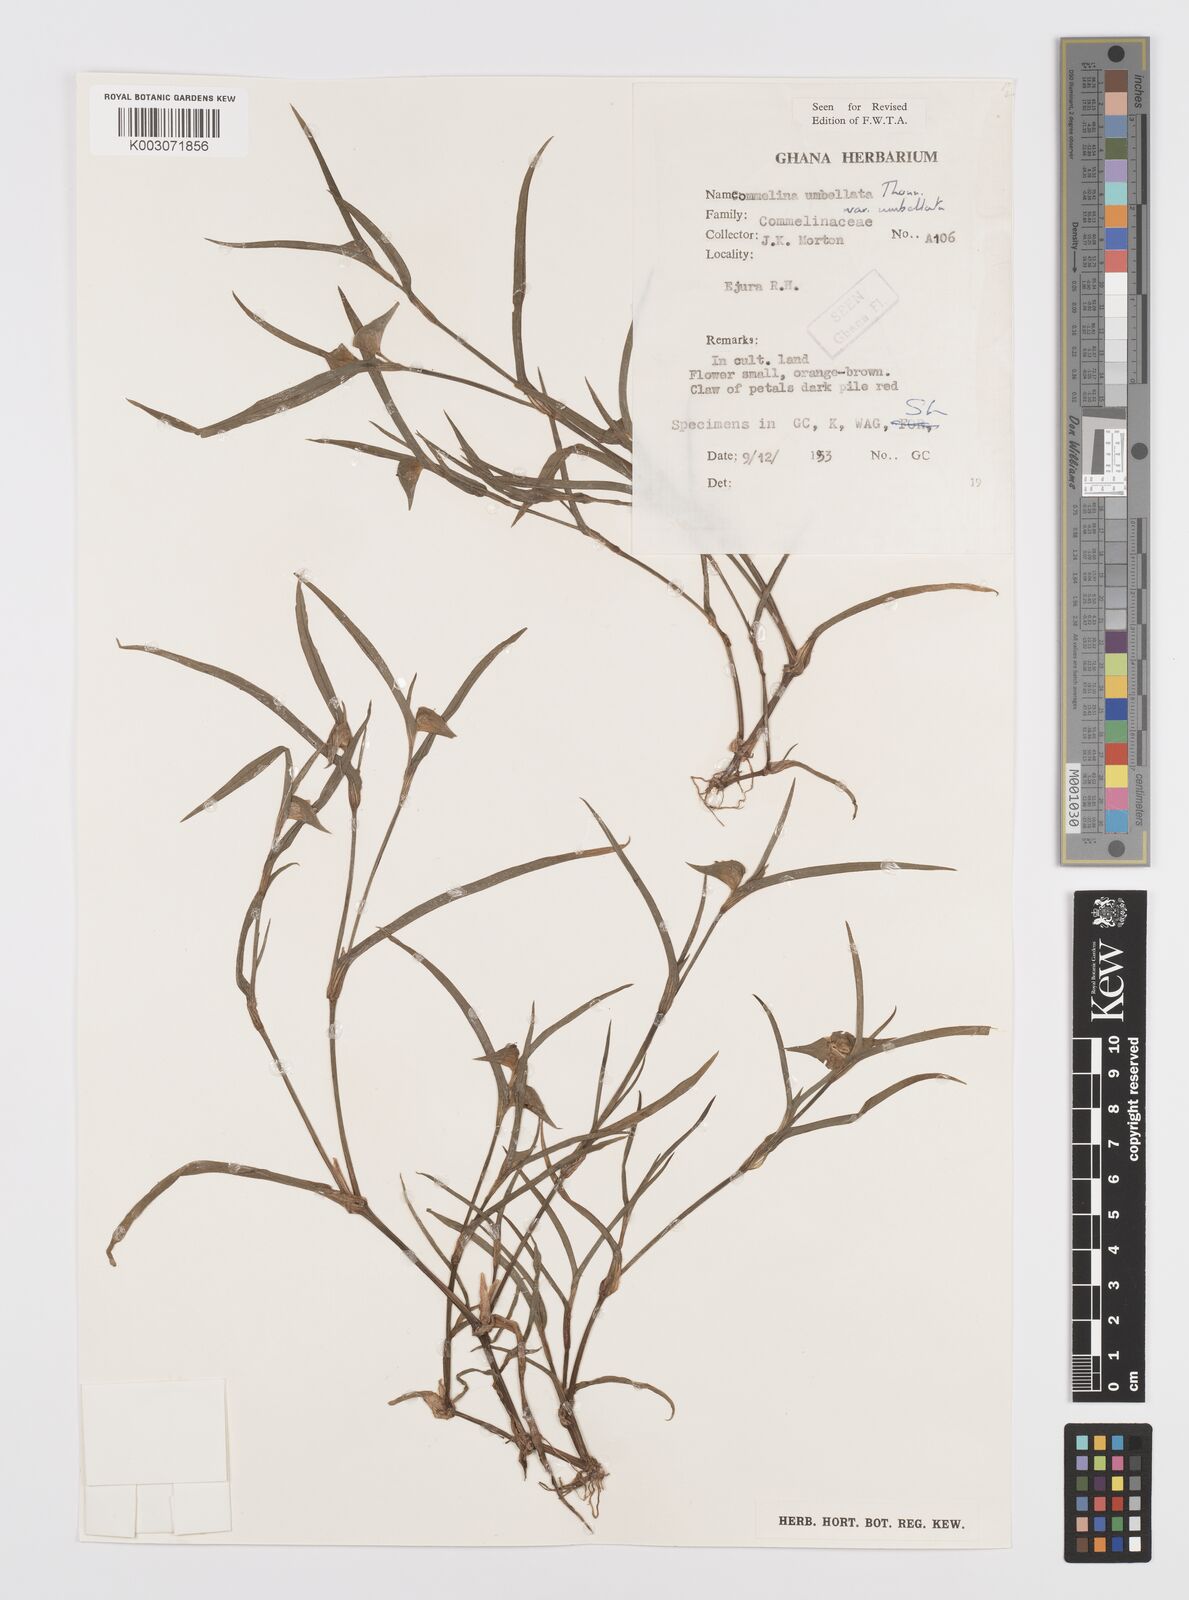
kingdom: Plantae
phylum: Tracheophyta
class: Liliopsida
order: Commelinales
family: Commelinaceae
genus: Commelina
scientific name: Commelina
